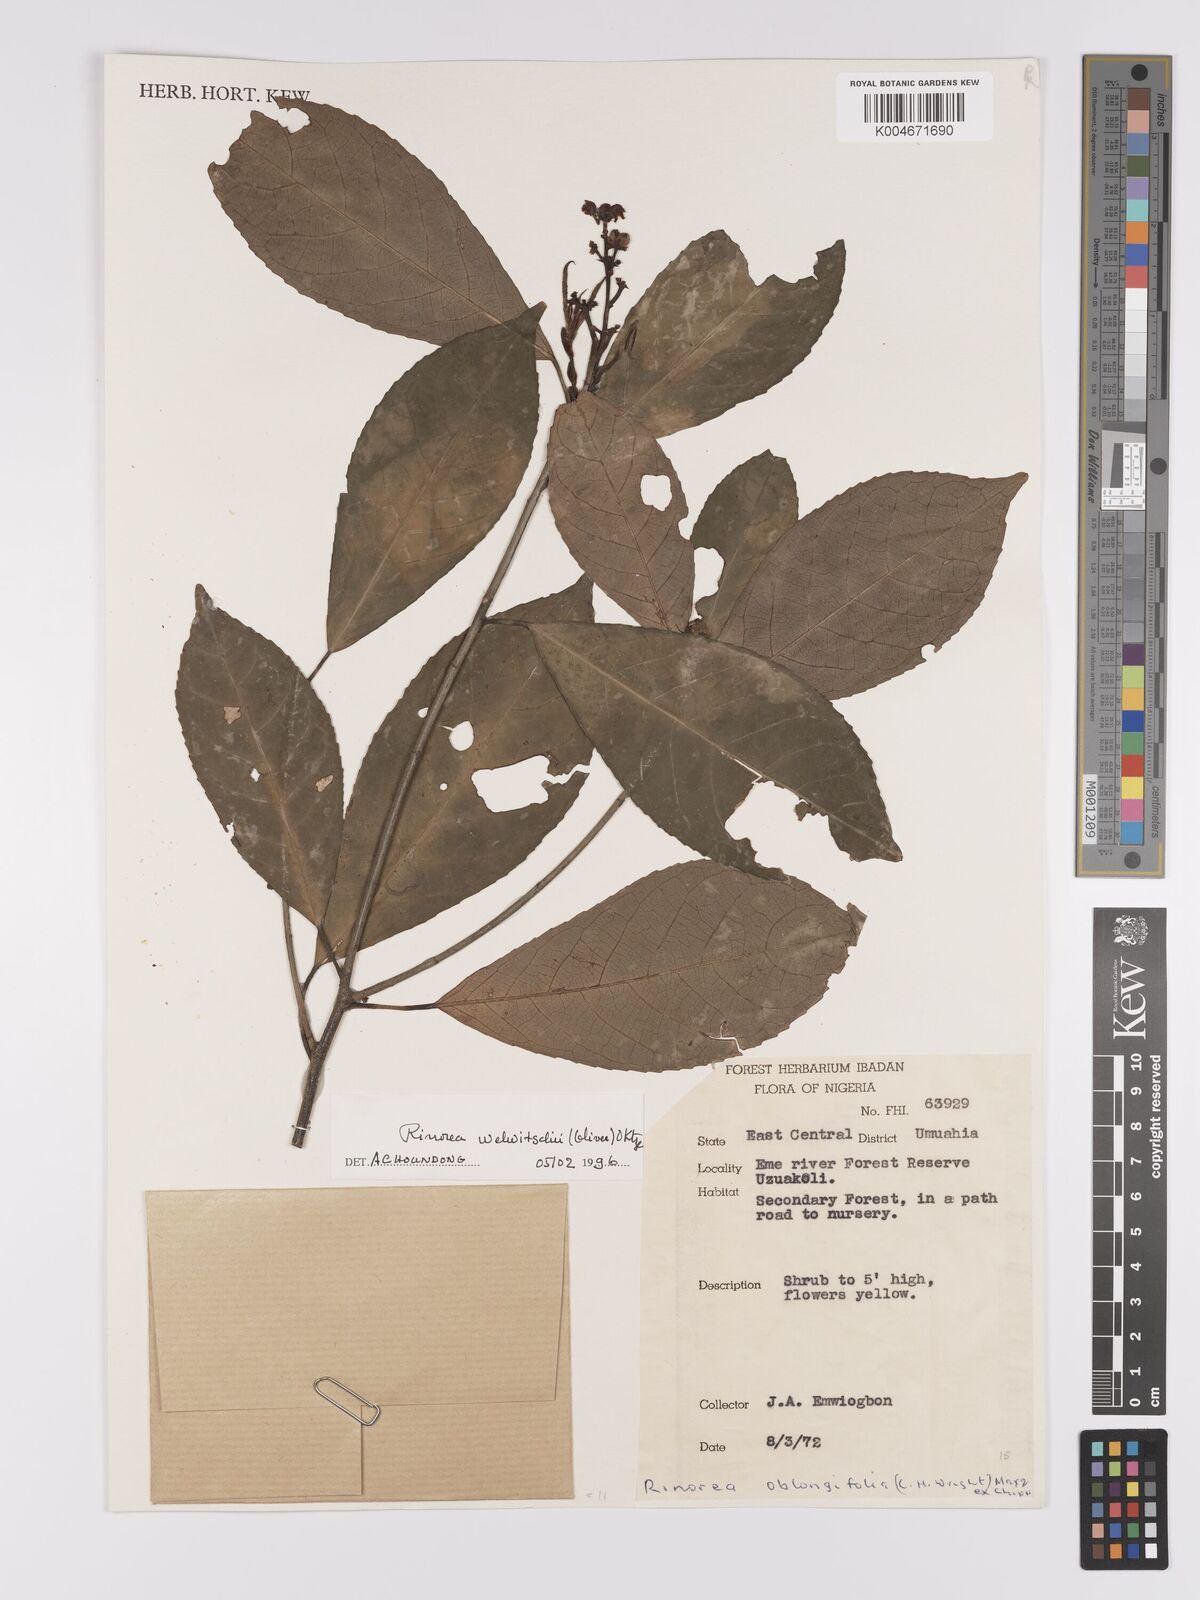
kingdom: Plantae
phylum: Tracheophyta
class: Magnoliopsida
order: Malpighiales
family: Violaceae
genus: Rinorea
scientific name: Rinorea welwitschii
